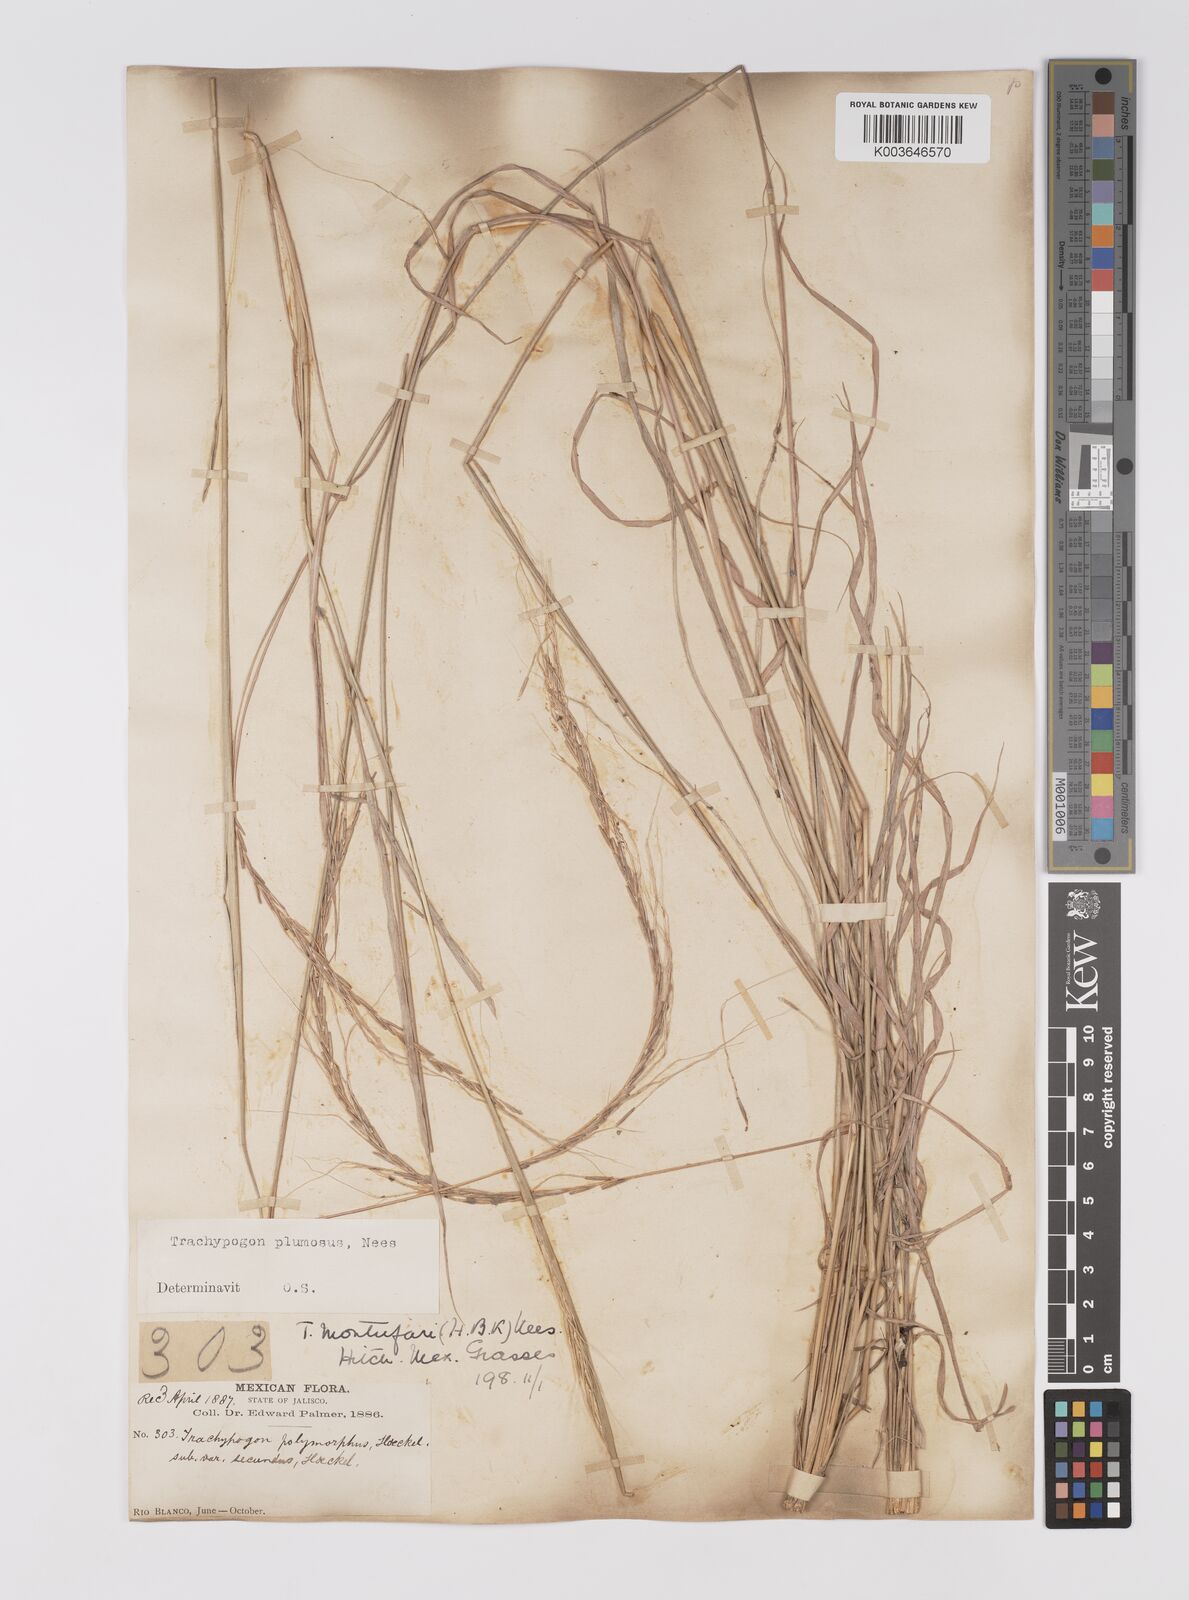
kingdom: Plantae
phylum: Tracheophyta
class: Liliopsida
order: Poales
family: Poaceae
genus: Trachypogon
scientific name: Trachypogon spicatus
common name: Crinkle-awn
